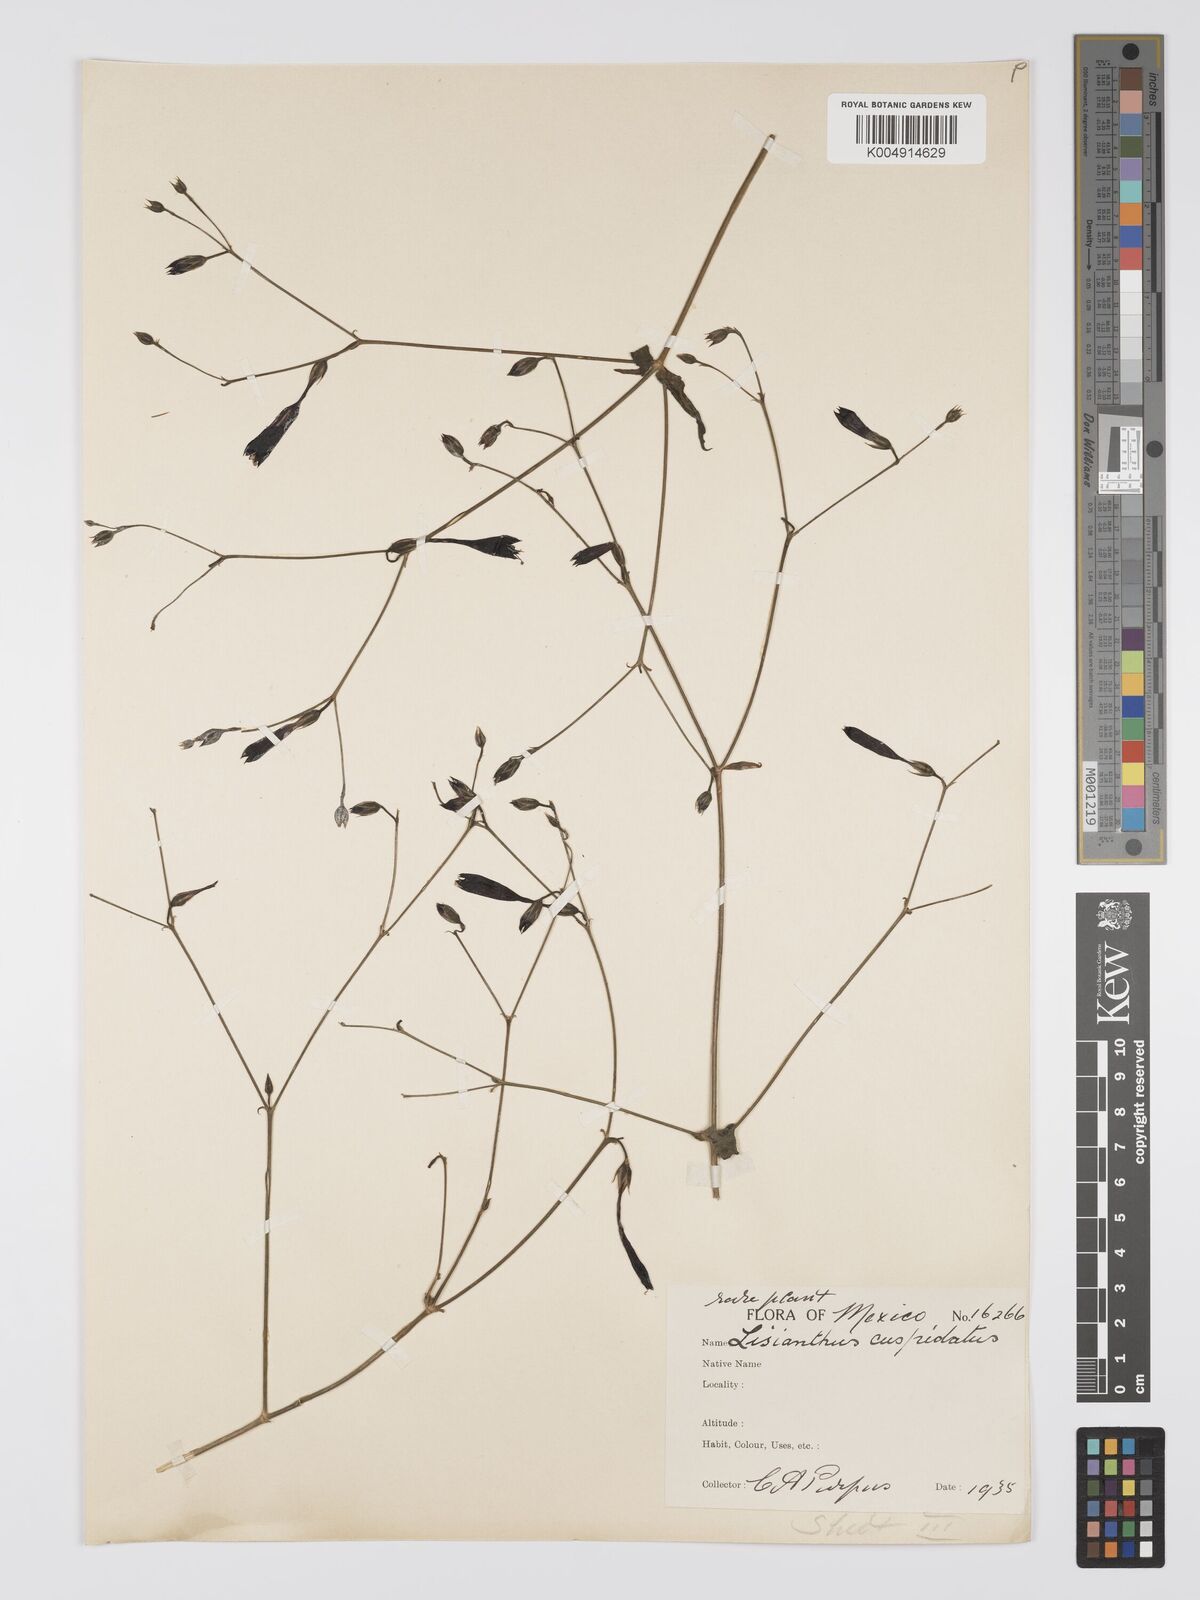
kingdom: Plantae
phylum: Tracheophyta
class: Magnoliopsida
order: Gentianales
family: Gentianaceae
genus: Lisianthius
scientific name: Lisianthius cuspidatus
